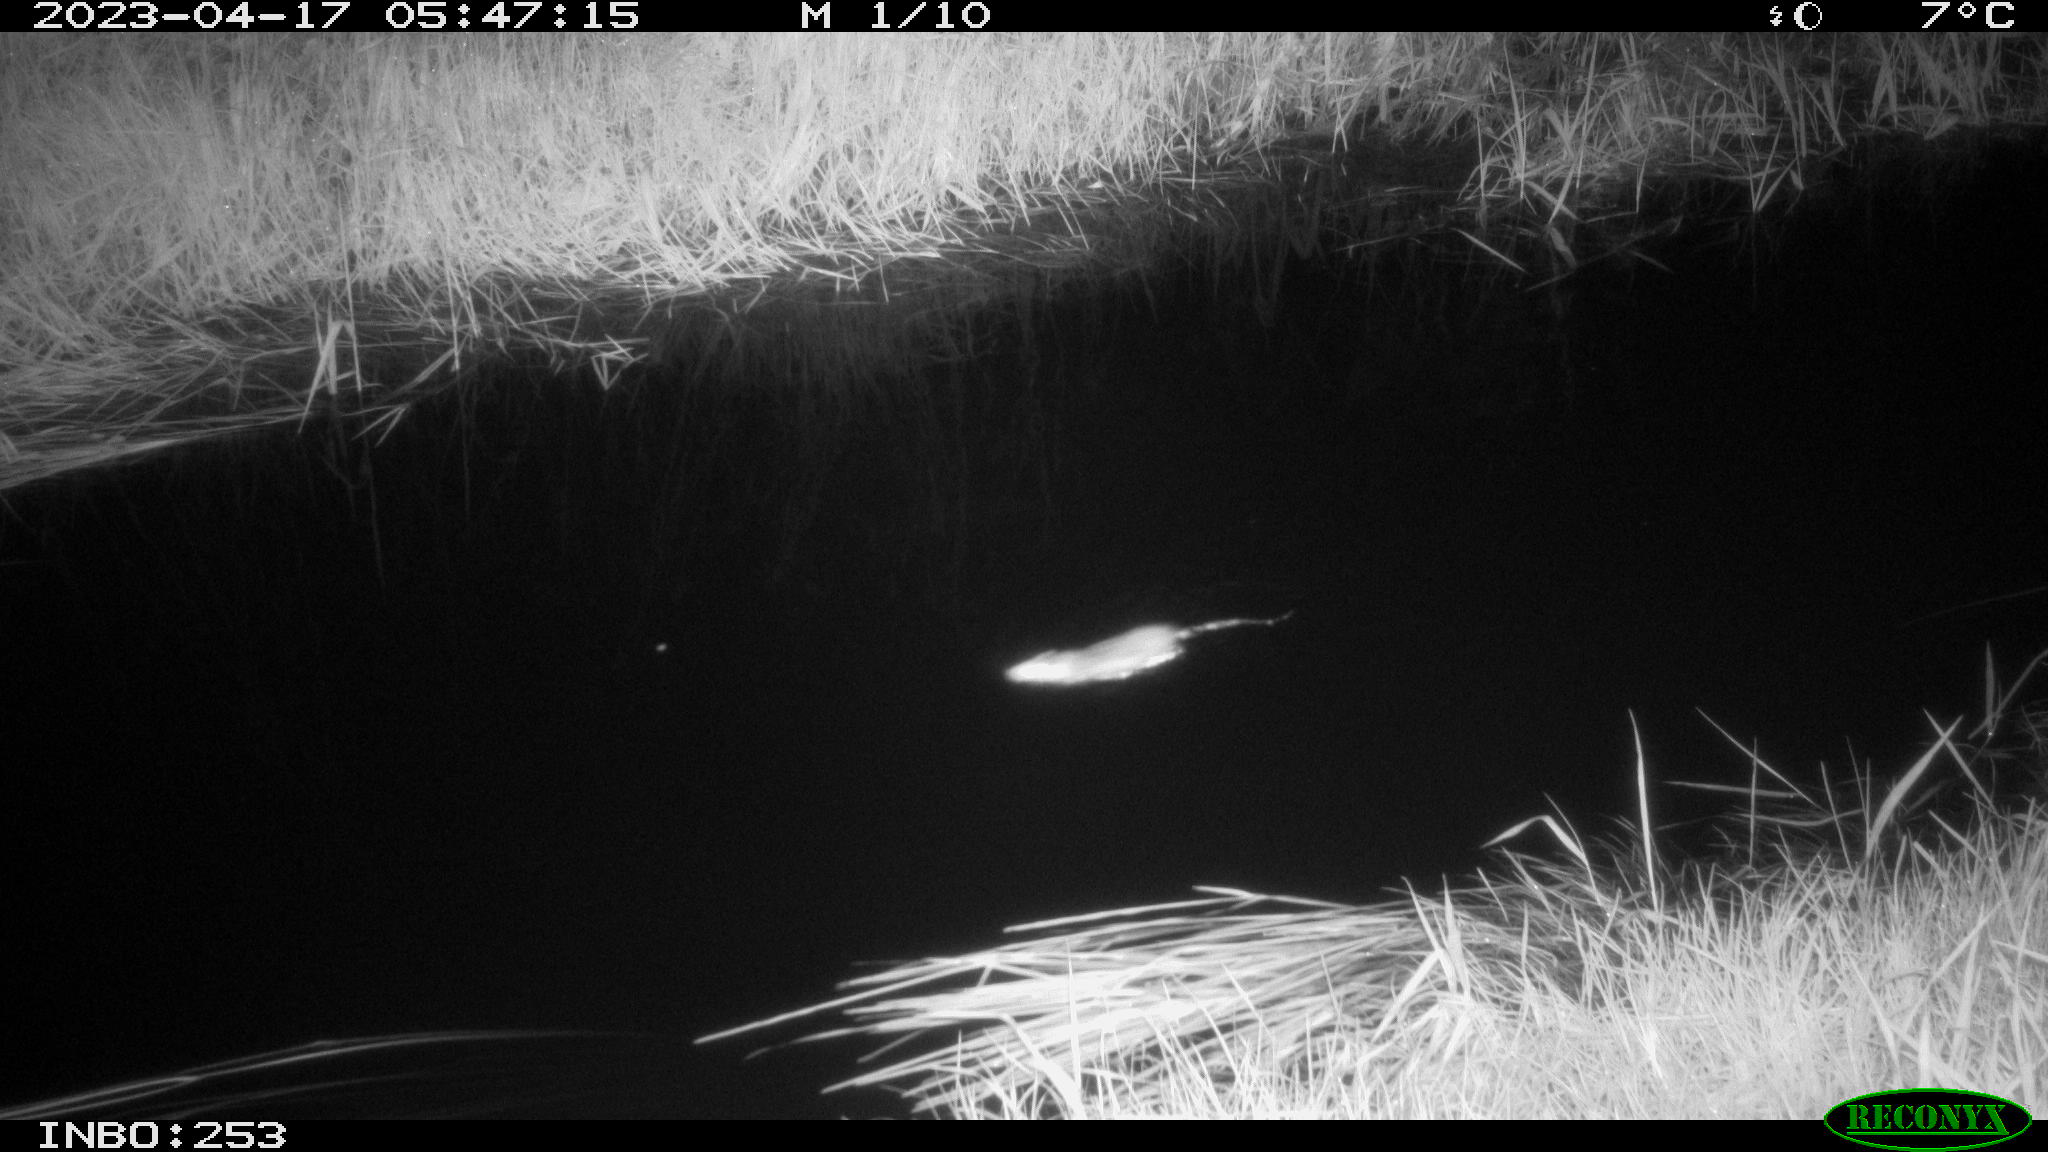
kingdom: Animalia
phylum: Chordata
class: Mammalia
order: Rodentia
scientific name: Rodentia
